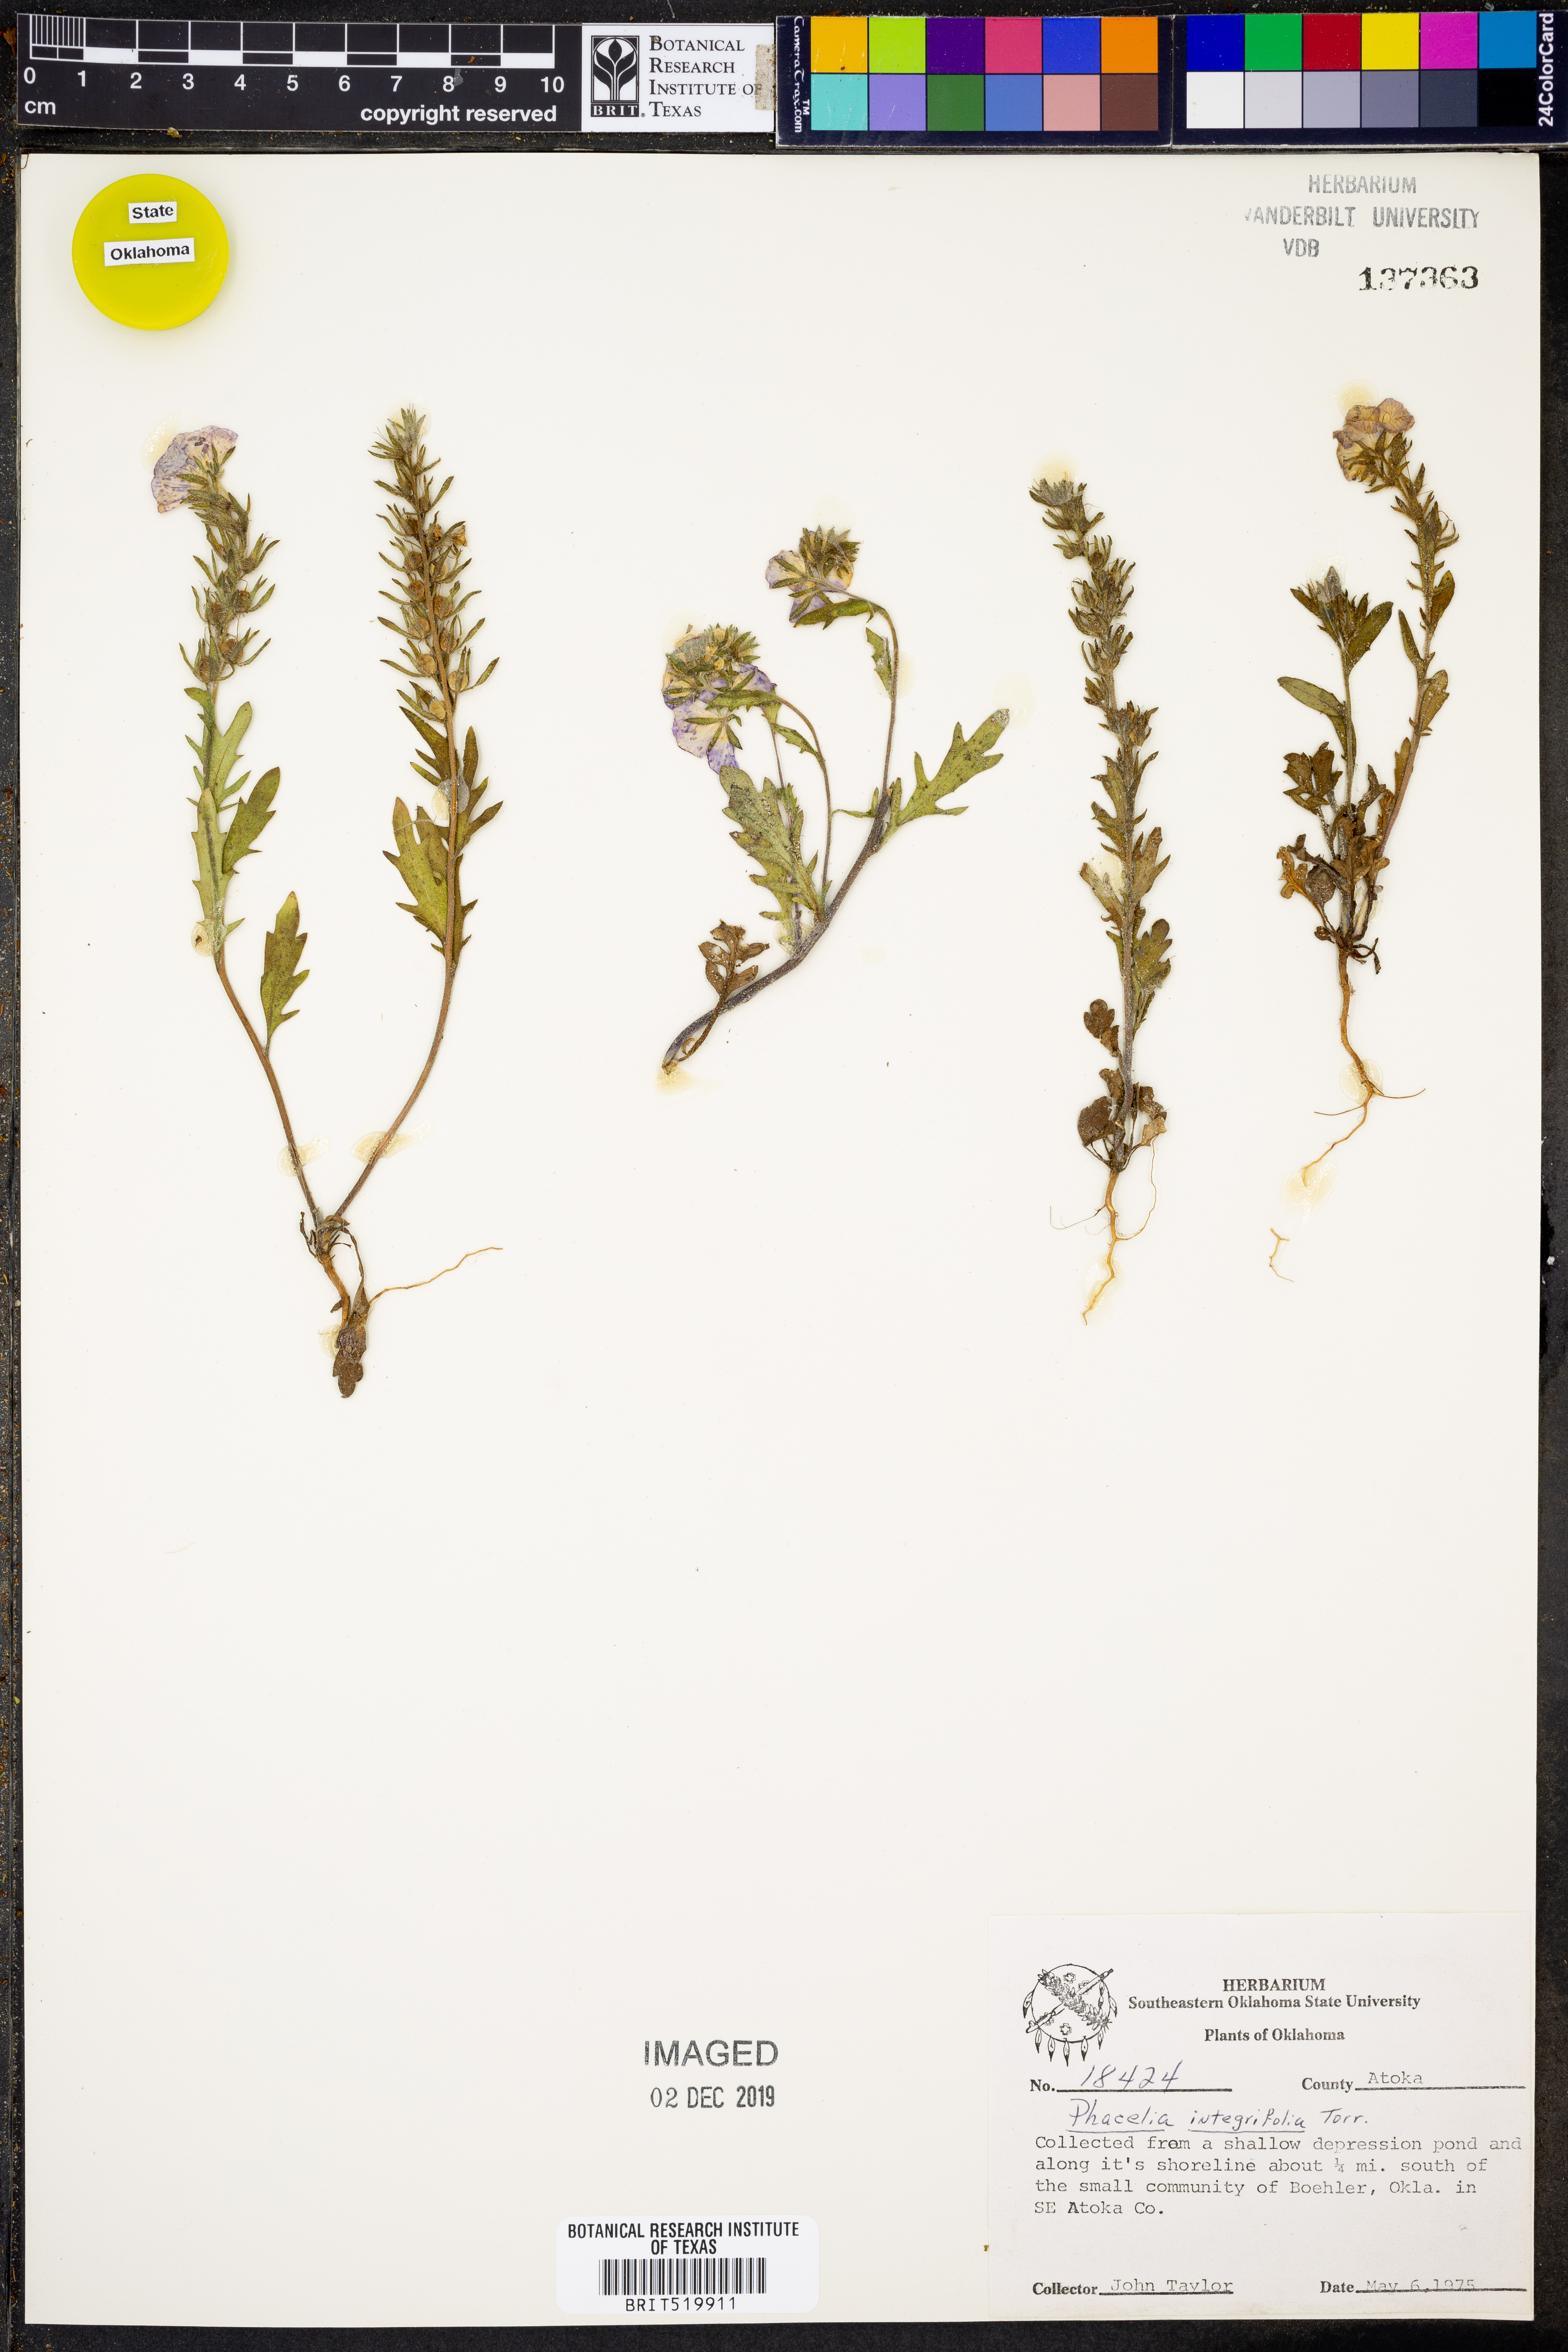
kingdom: Plantae
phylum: Tracheophyta
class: Magnoliopsida
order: Boraginales
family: Hydrophyllaceae
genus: Phacelia
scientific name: Phacelia integrifolia
